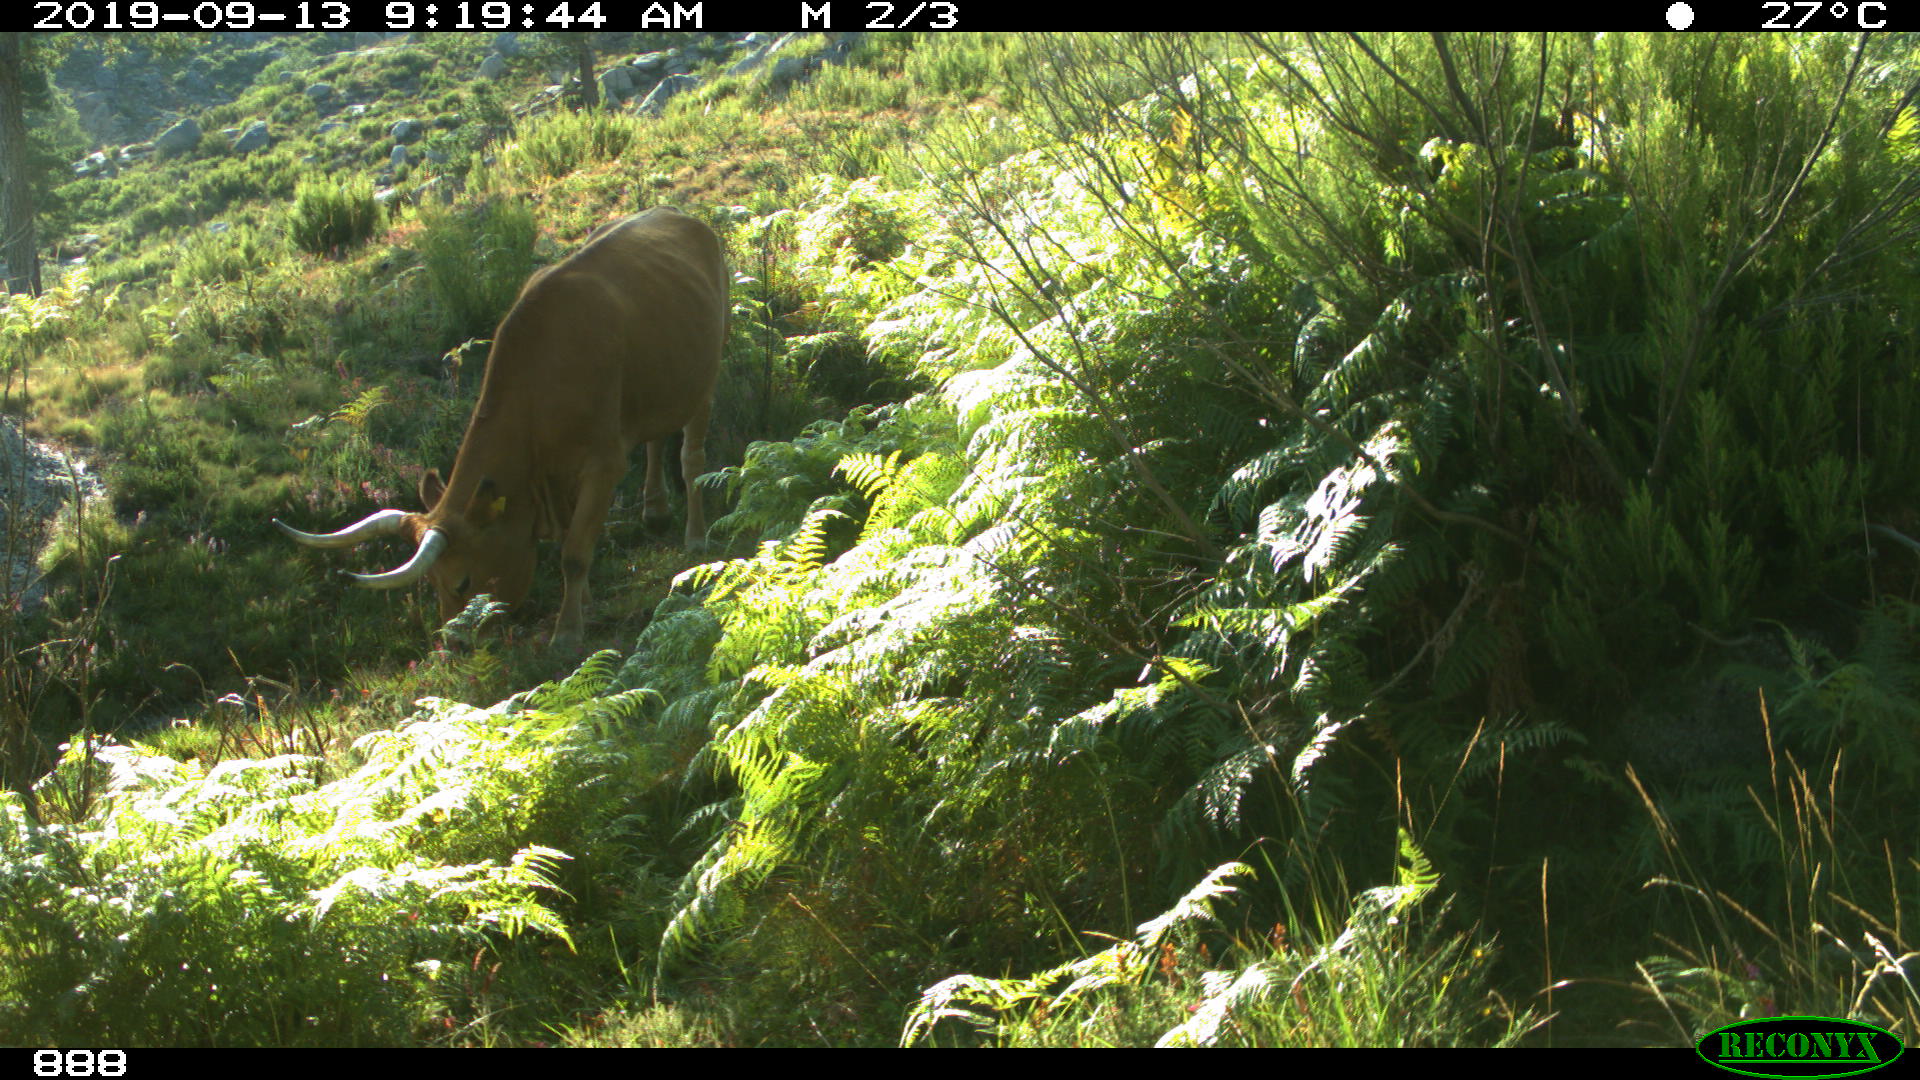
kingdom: Animalia
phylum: Chordata
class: Mammalia
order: Artiodactyla
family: Bovidae
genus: Bos
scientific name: Bos taurus
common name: Domesticated cattle
